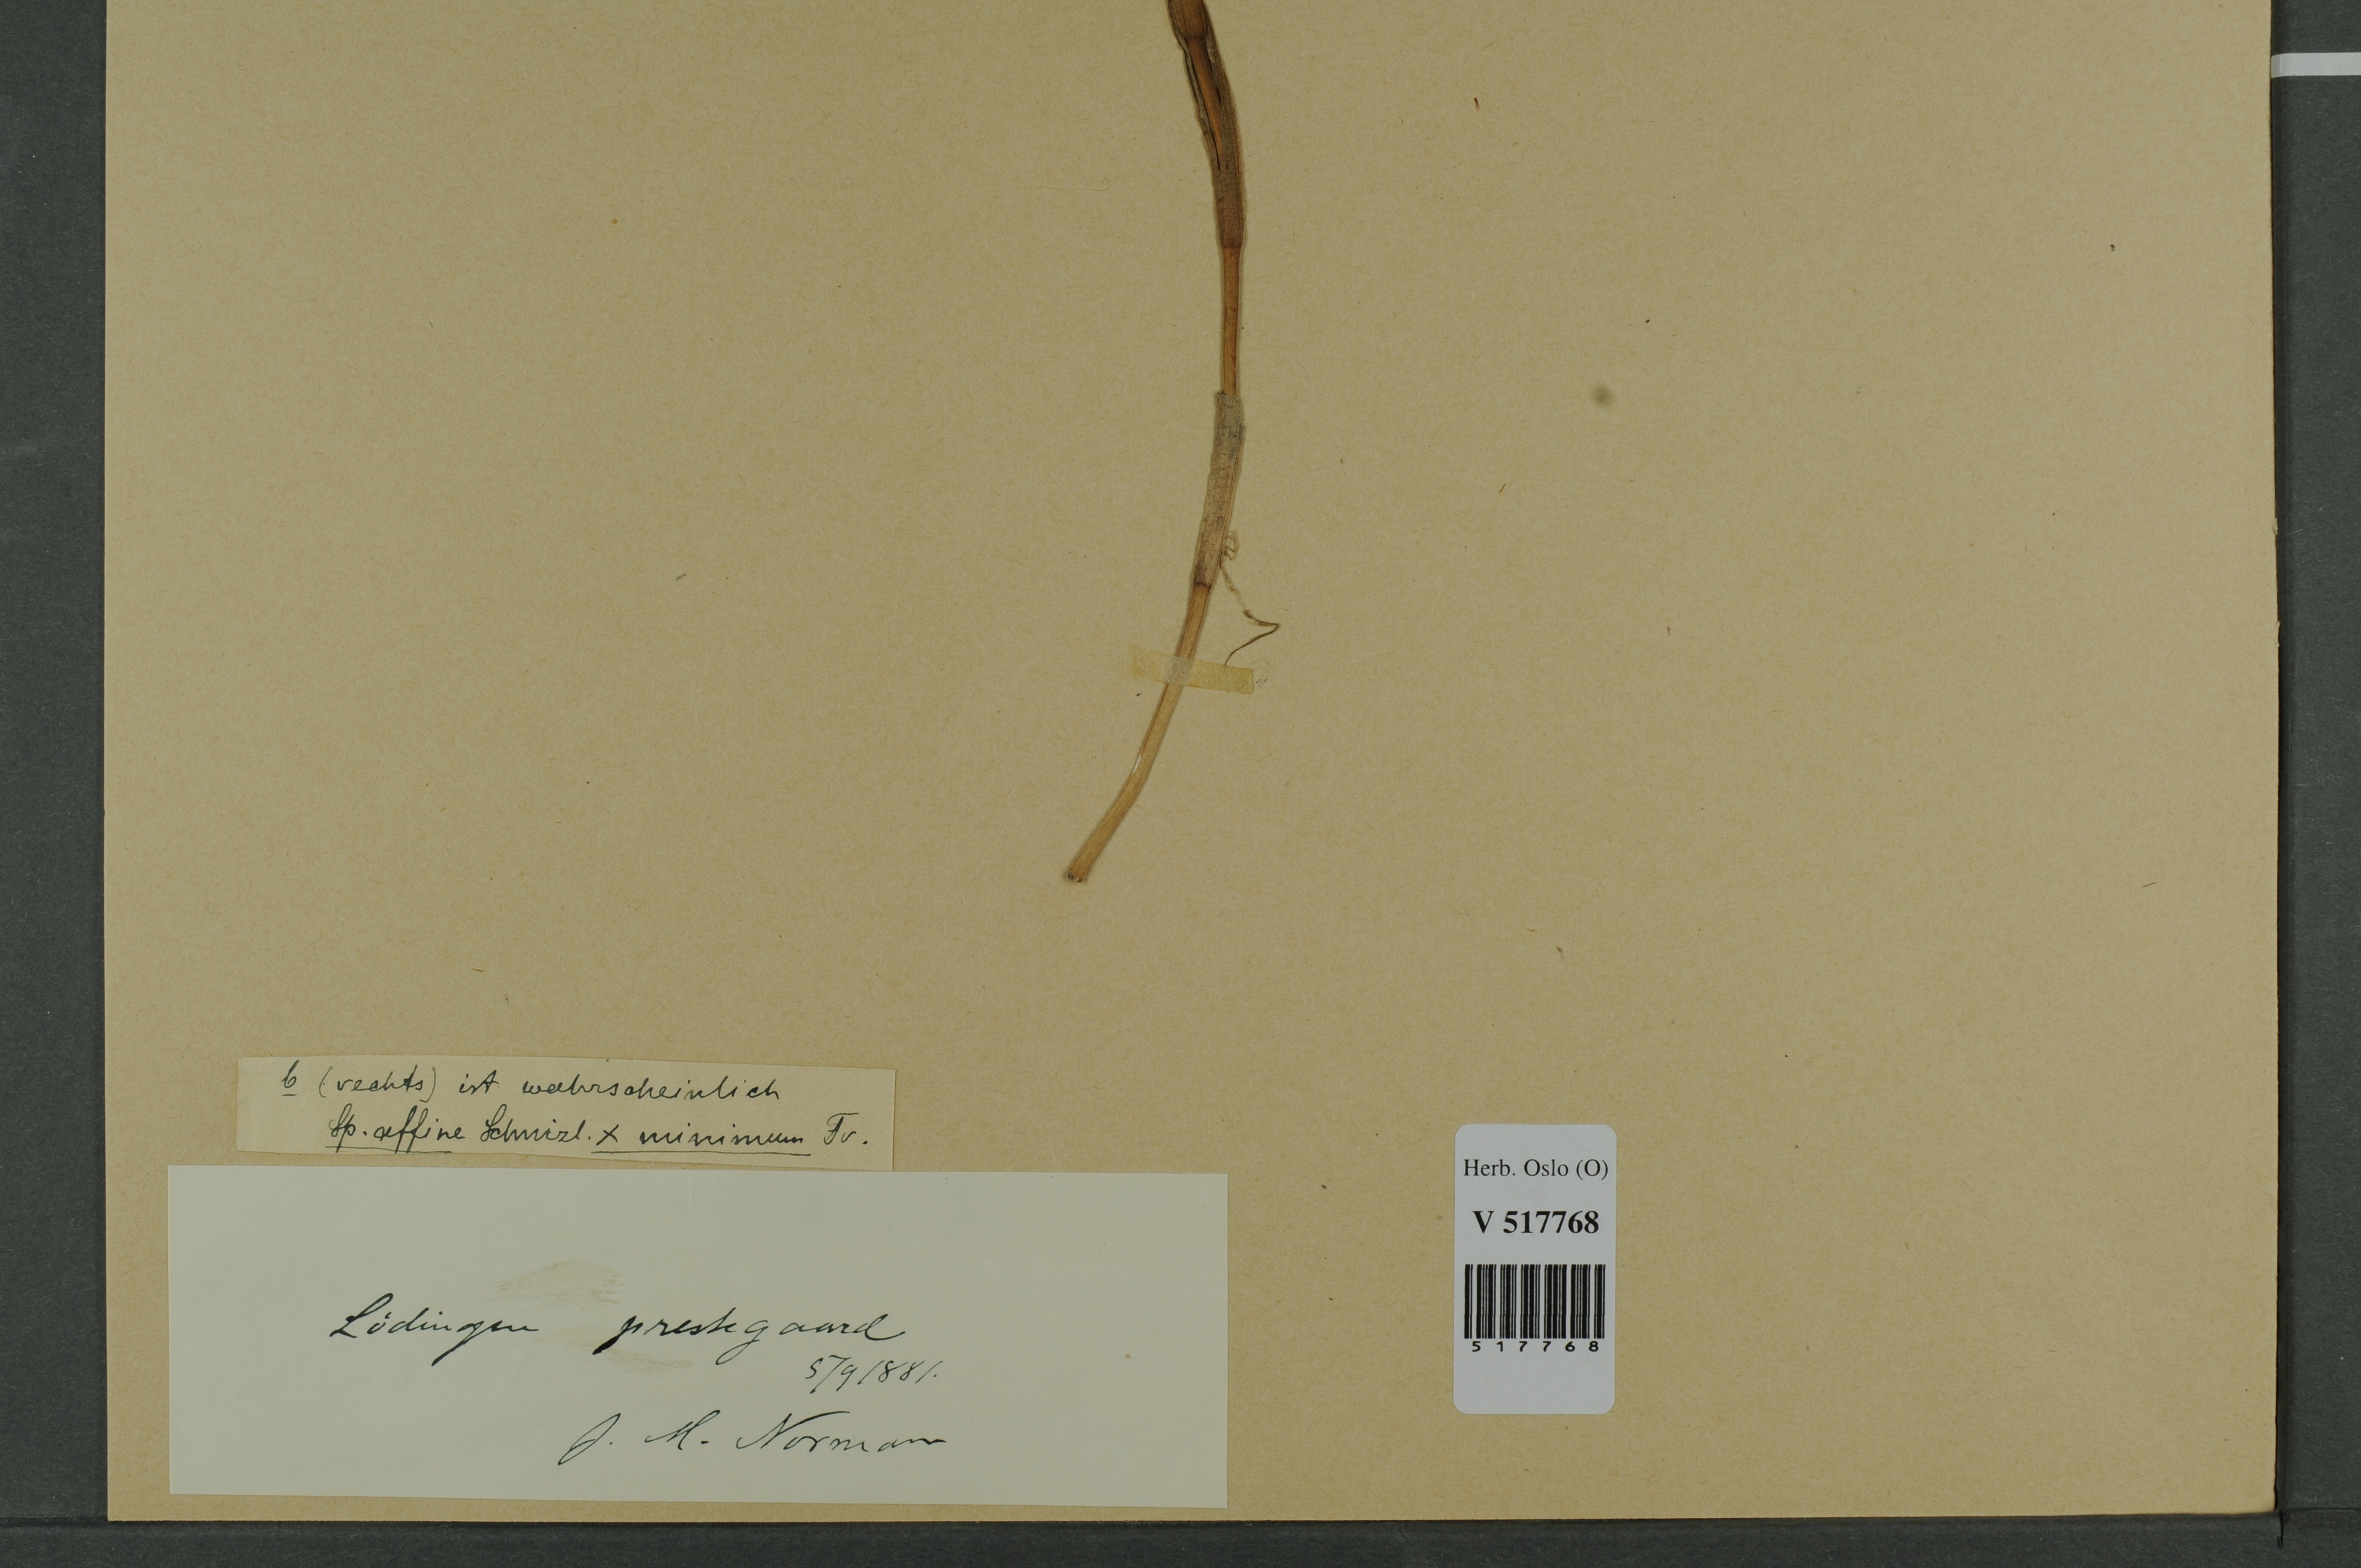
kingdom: Plantae
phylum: Tracheophyta
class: Liliopsida
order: Poales
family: Typhaceae
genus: Sparganium
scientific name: Sparganium
